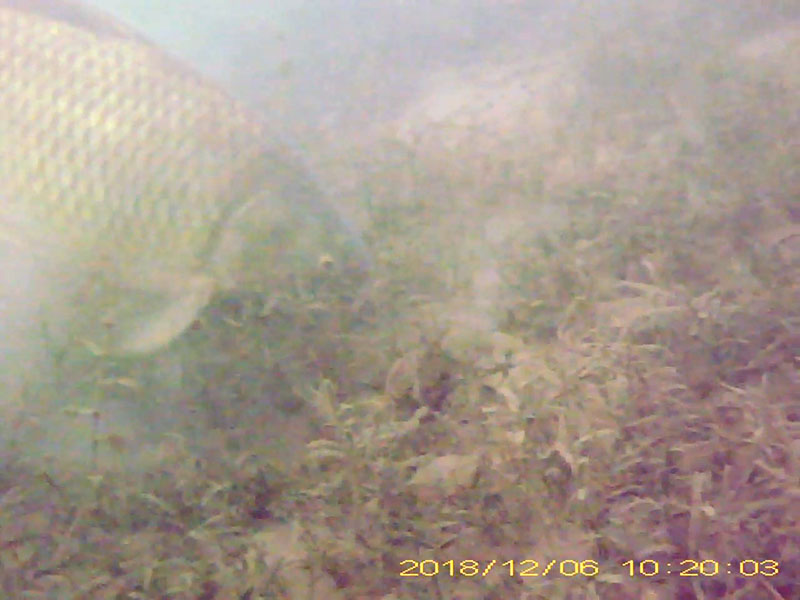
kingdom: Animalia
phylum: Chordata
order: Cypriniformes
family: Cyprinidae
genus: Cyprinus
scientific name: Cyprinus carpio
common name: コイ
